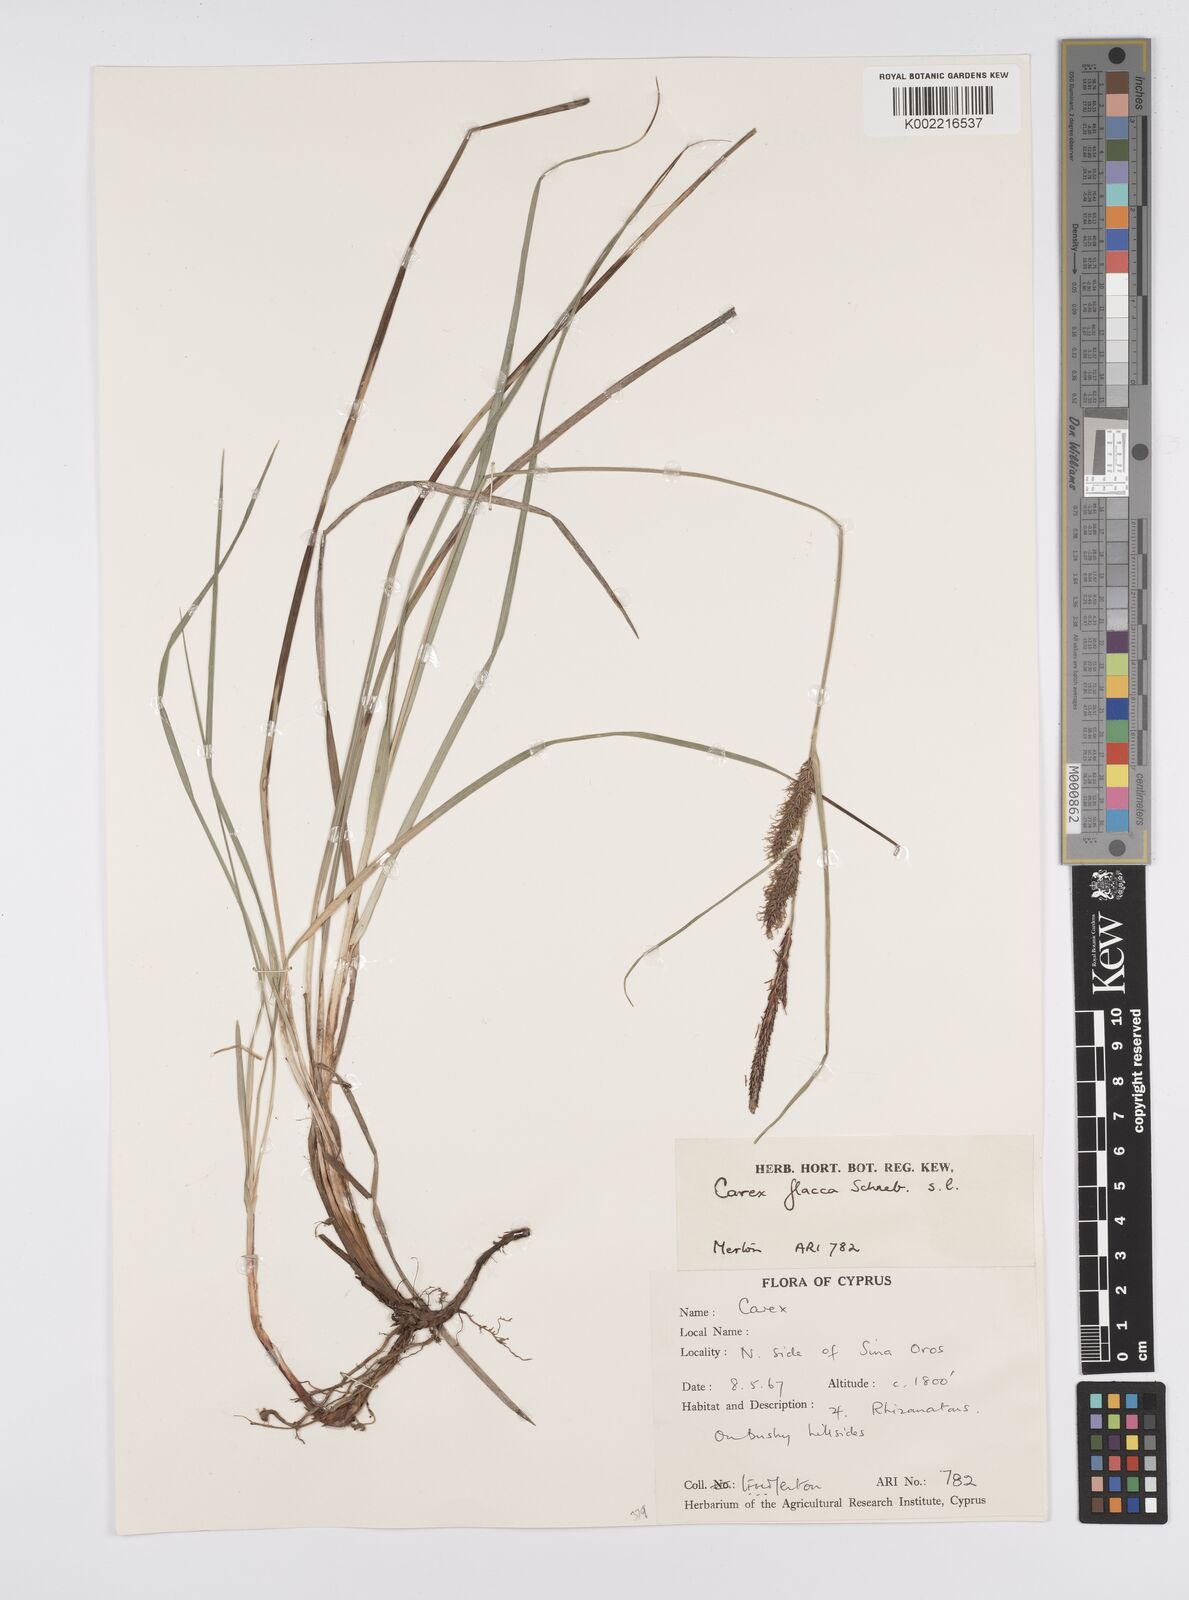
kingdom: Plantae
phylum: Tracheophyta
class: Liliopsida
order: Poales
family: Cyperaceae
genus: Carex
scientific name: Carex flacca
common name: Glaucous sedge
